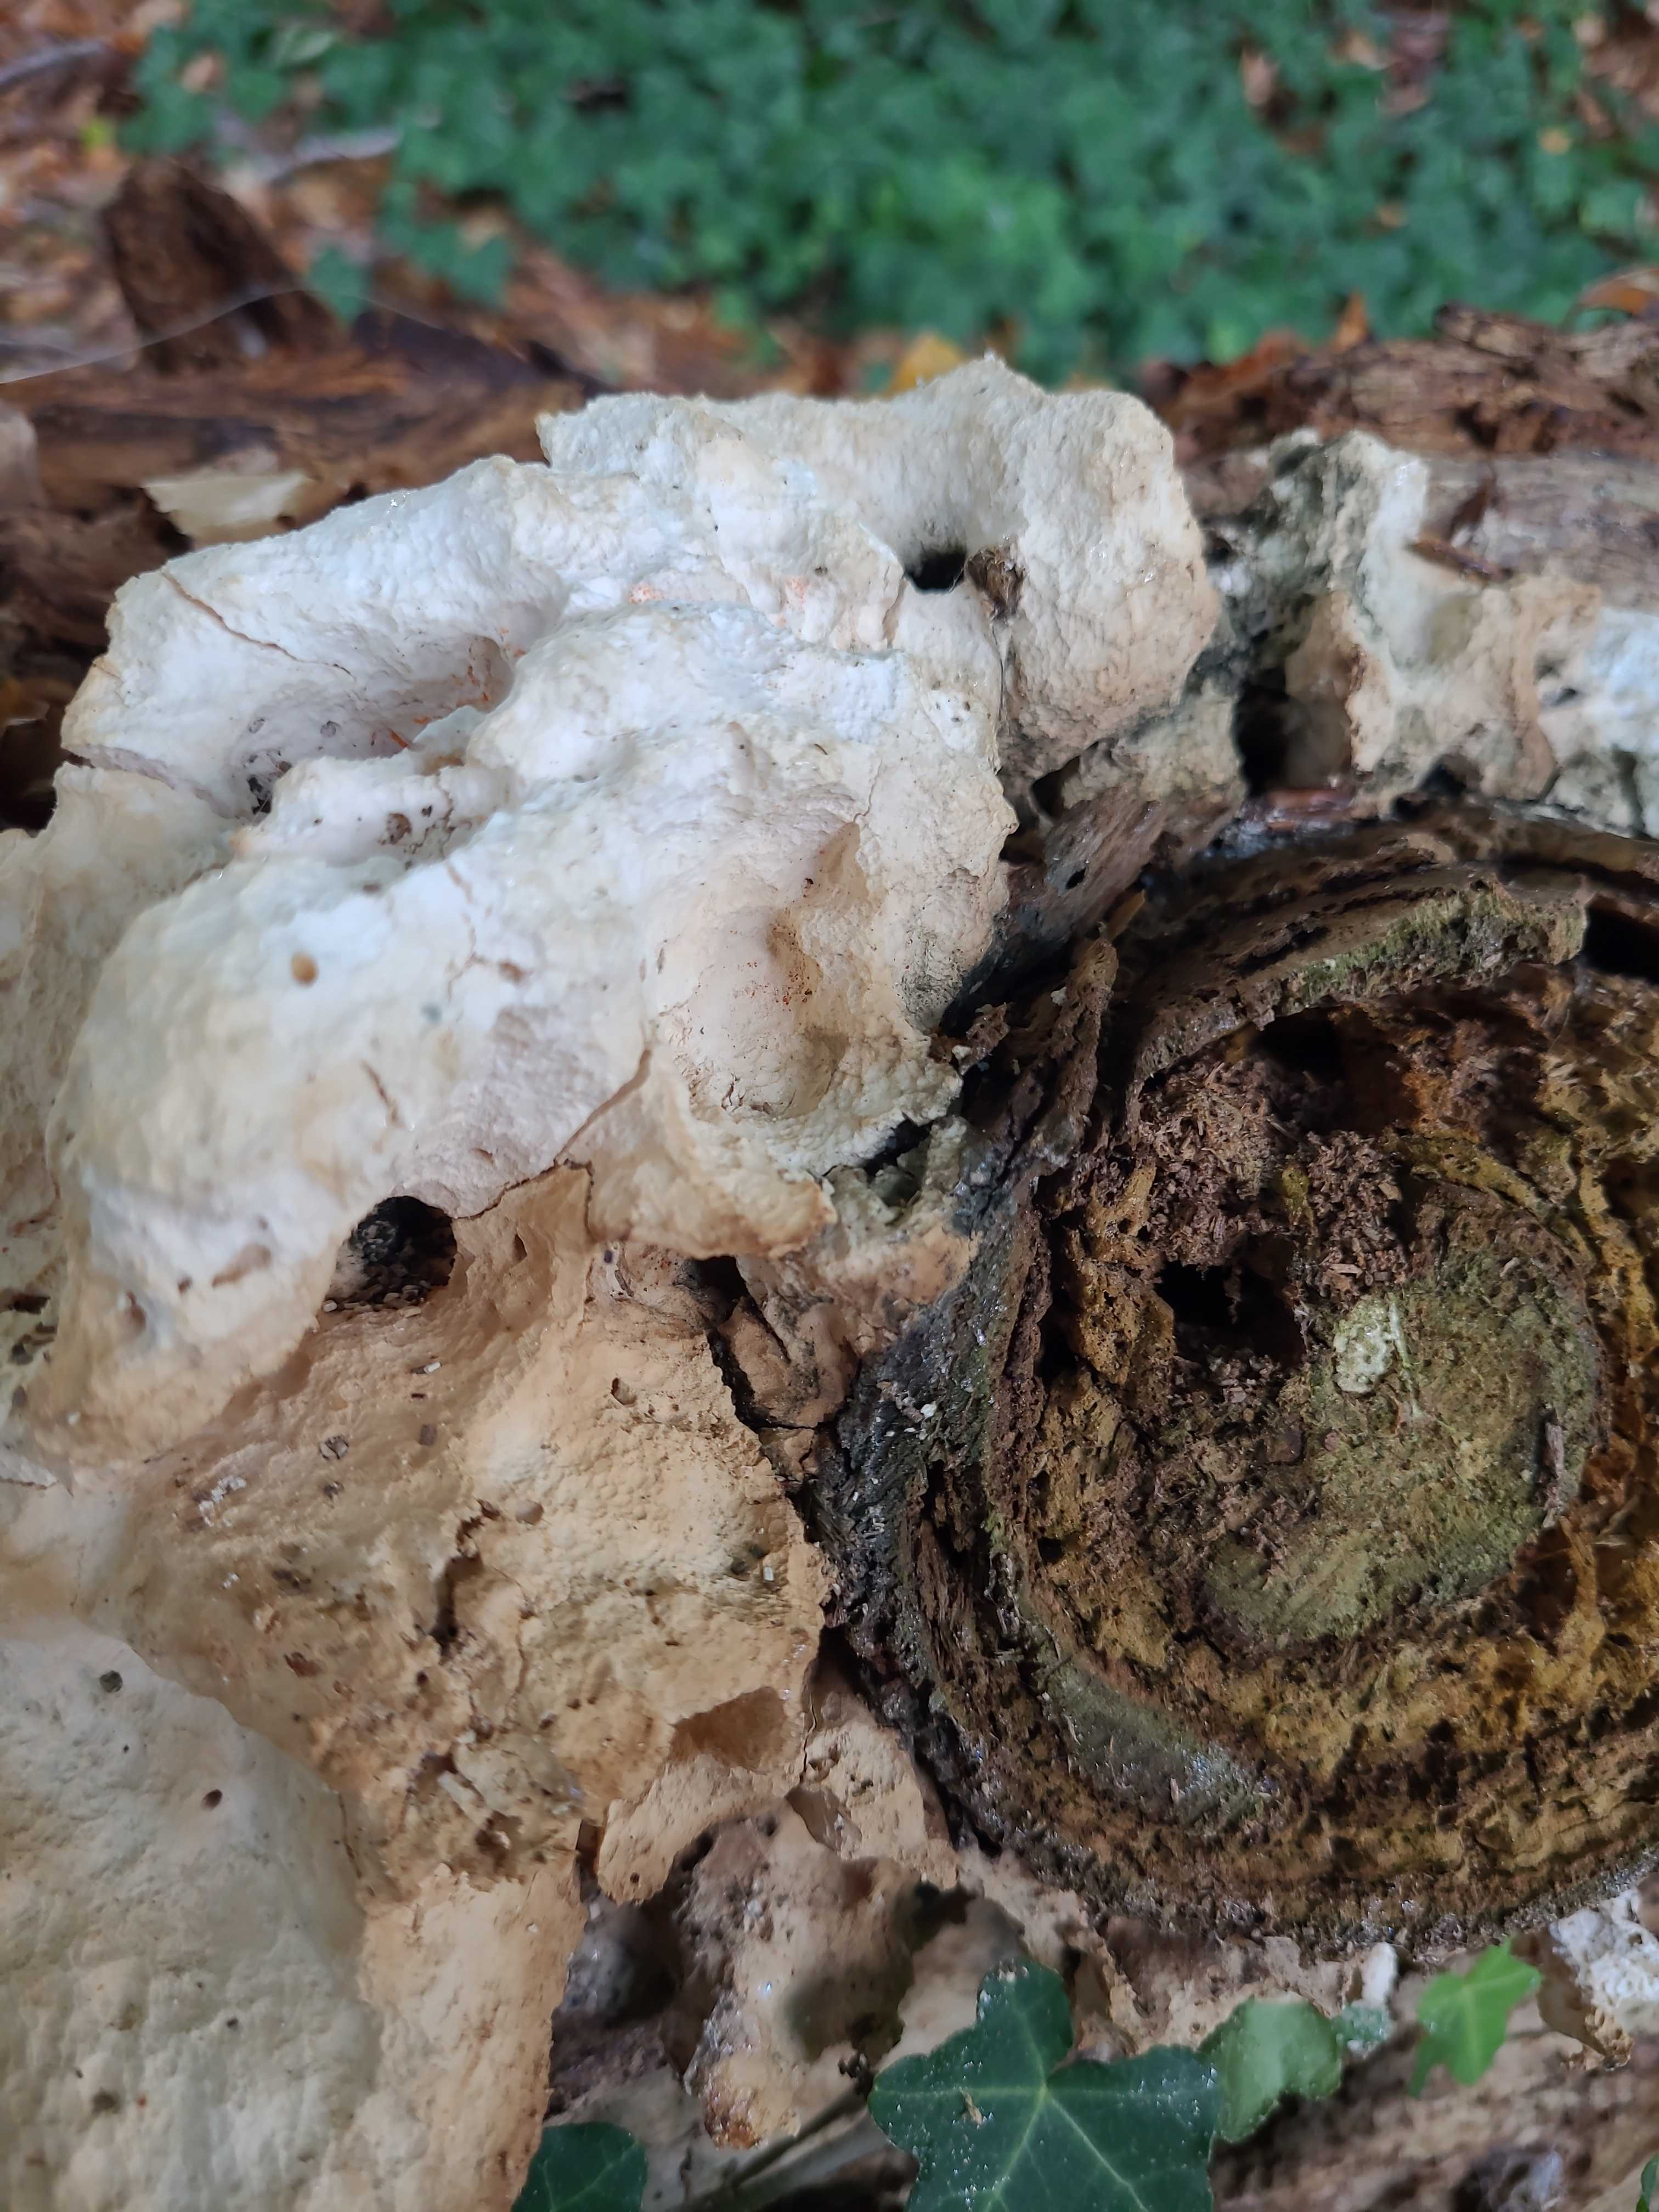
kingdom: Fungi
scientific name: Fungi
